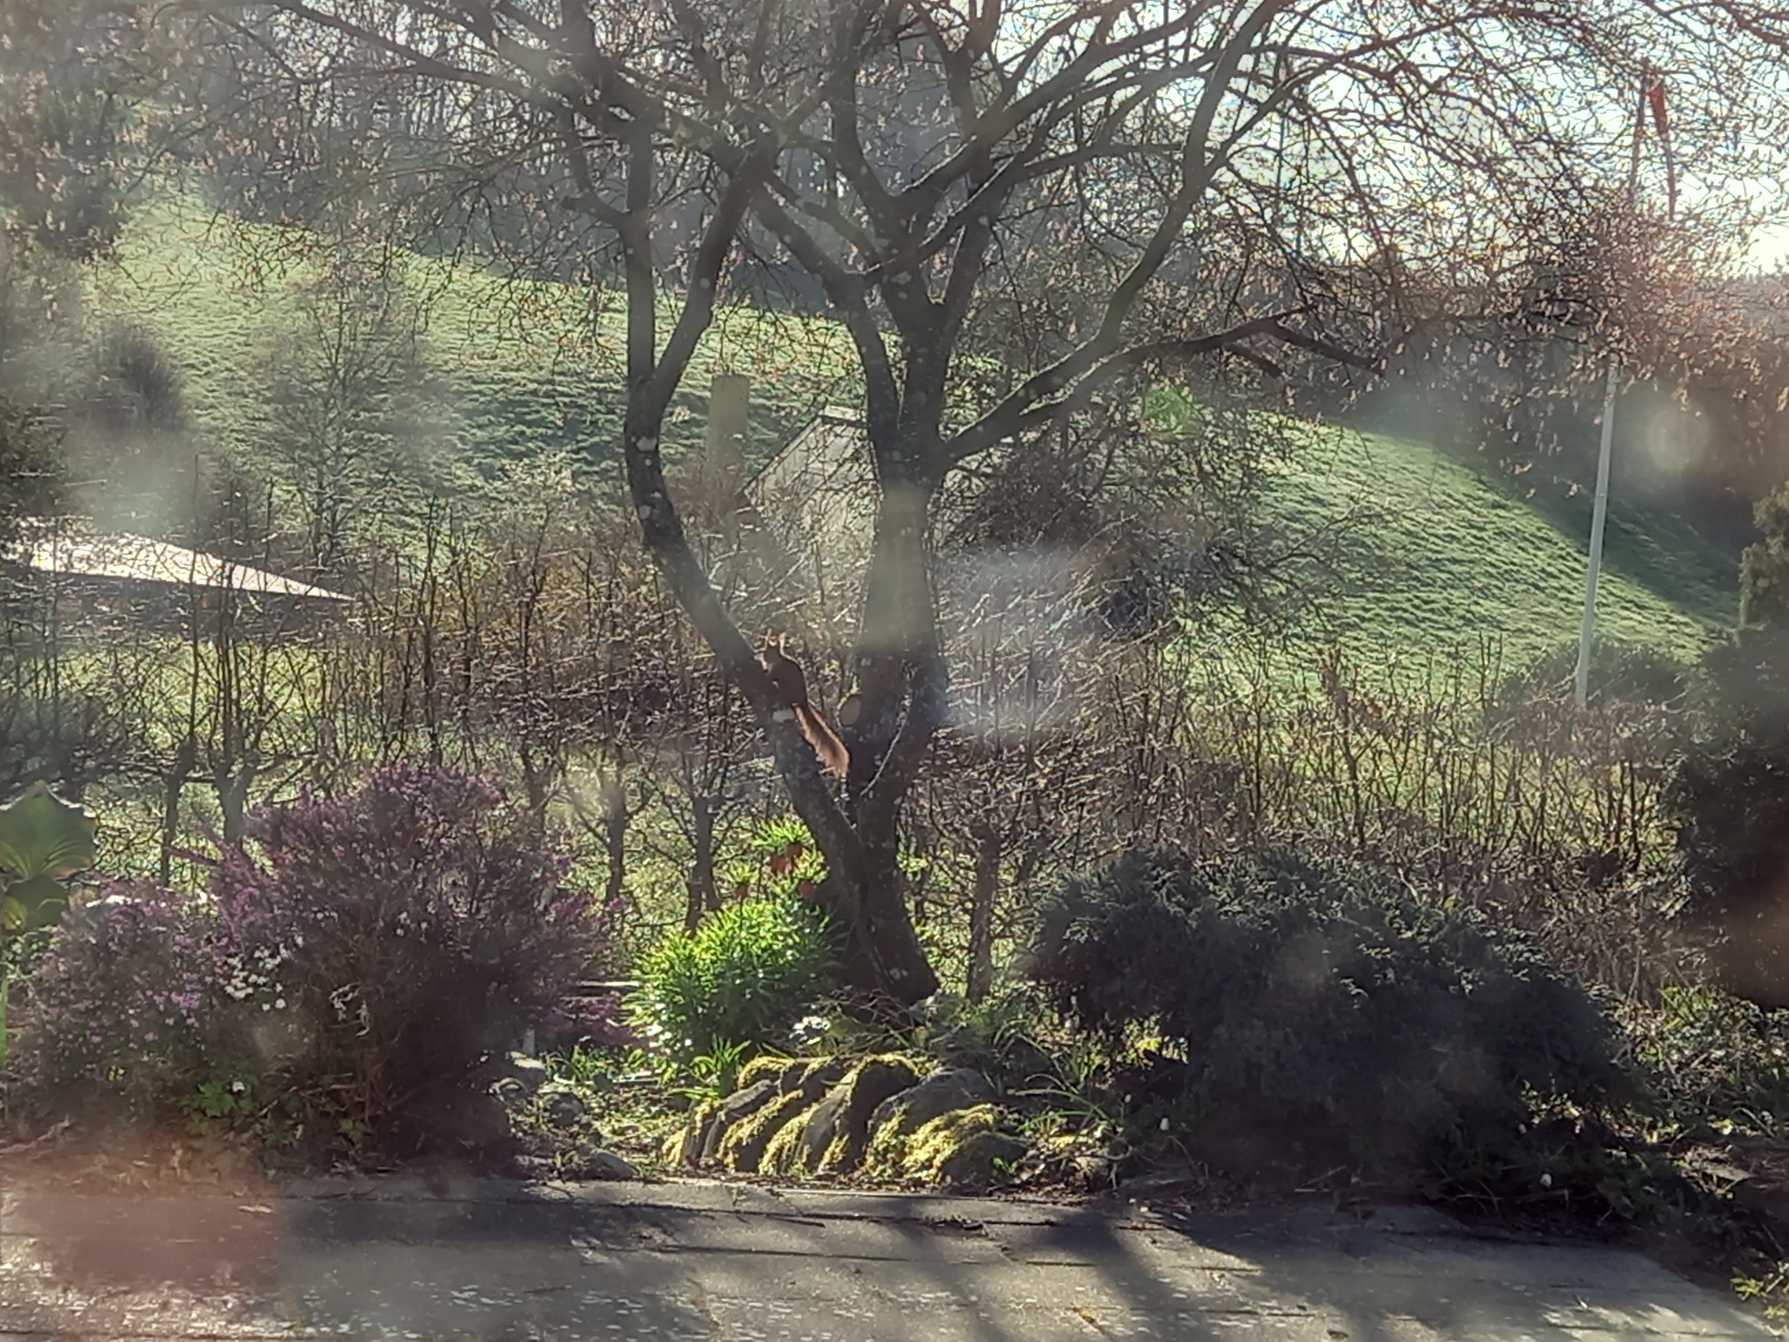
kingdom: Animalia
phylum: Chordata
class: Mammalia
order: Rodentia
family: Sciuridae
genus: Sciurus
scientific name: Sciurus vulgaris
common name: Egern
